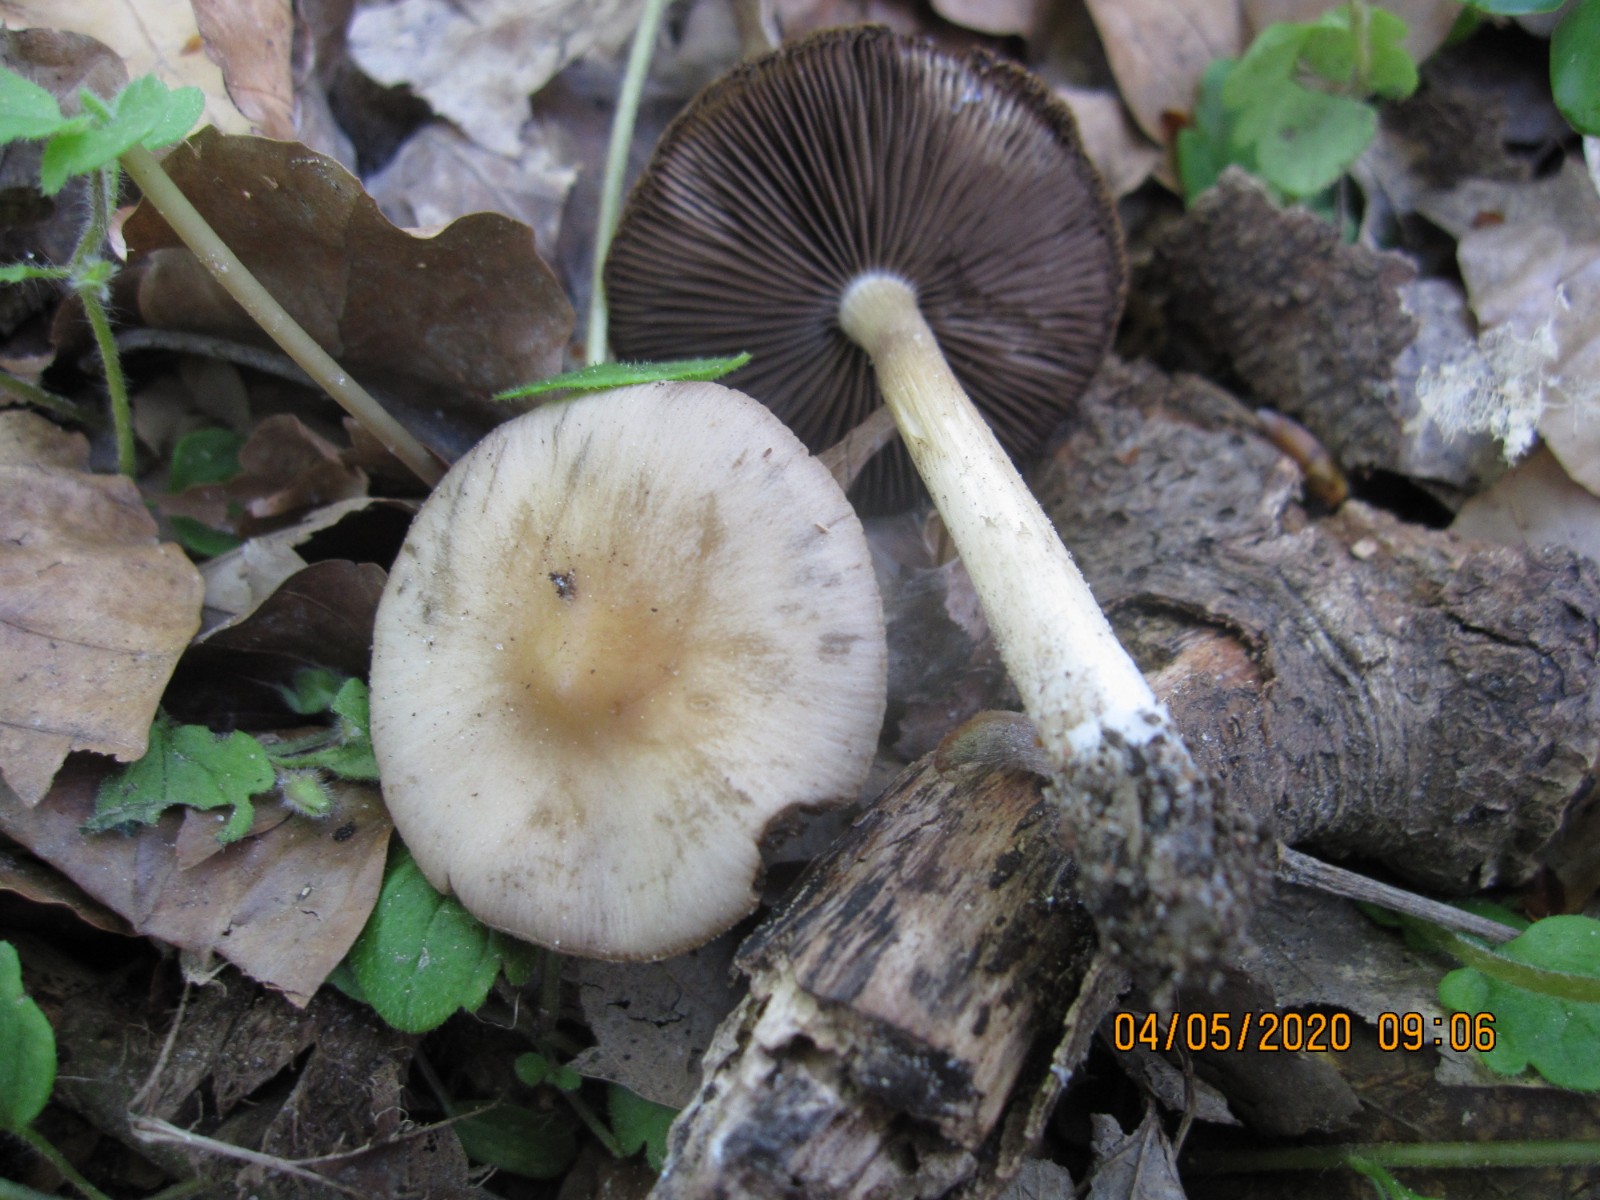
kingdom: Fungi
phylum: Basidiomycota
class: Agaricomycetes
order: Agaricales
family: Psathyrellaceae
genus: Psathyrella
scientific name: Psathyrella spadiceogrisea
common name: gråbrun mørkhat
